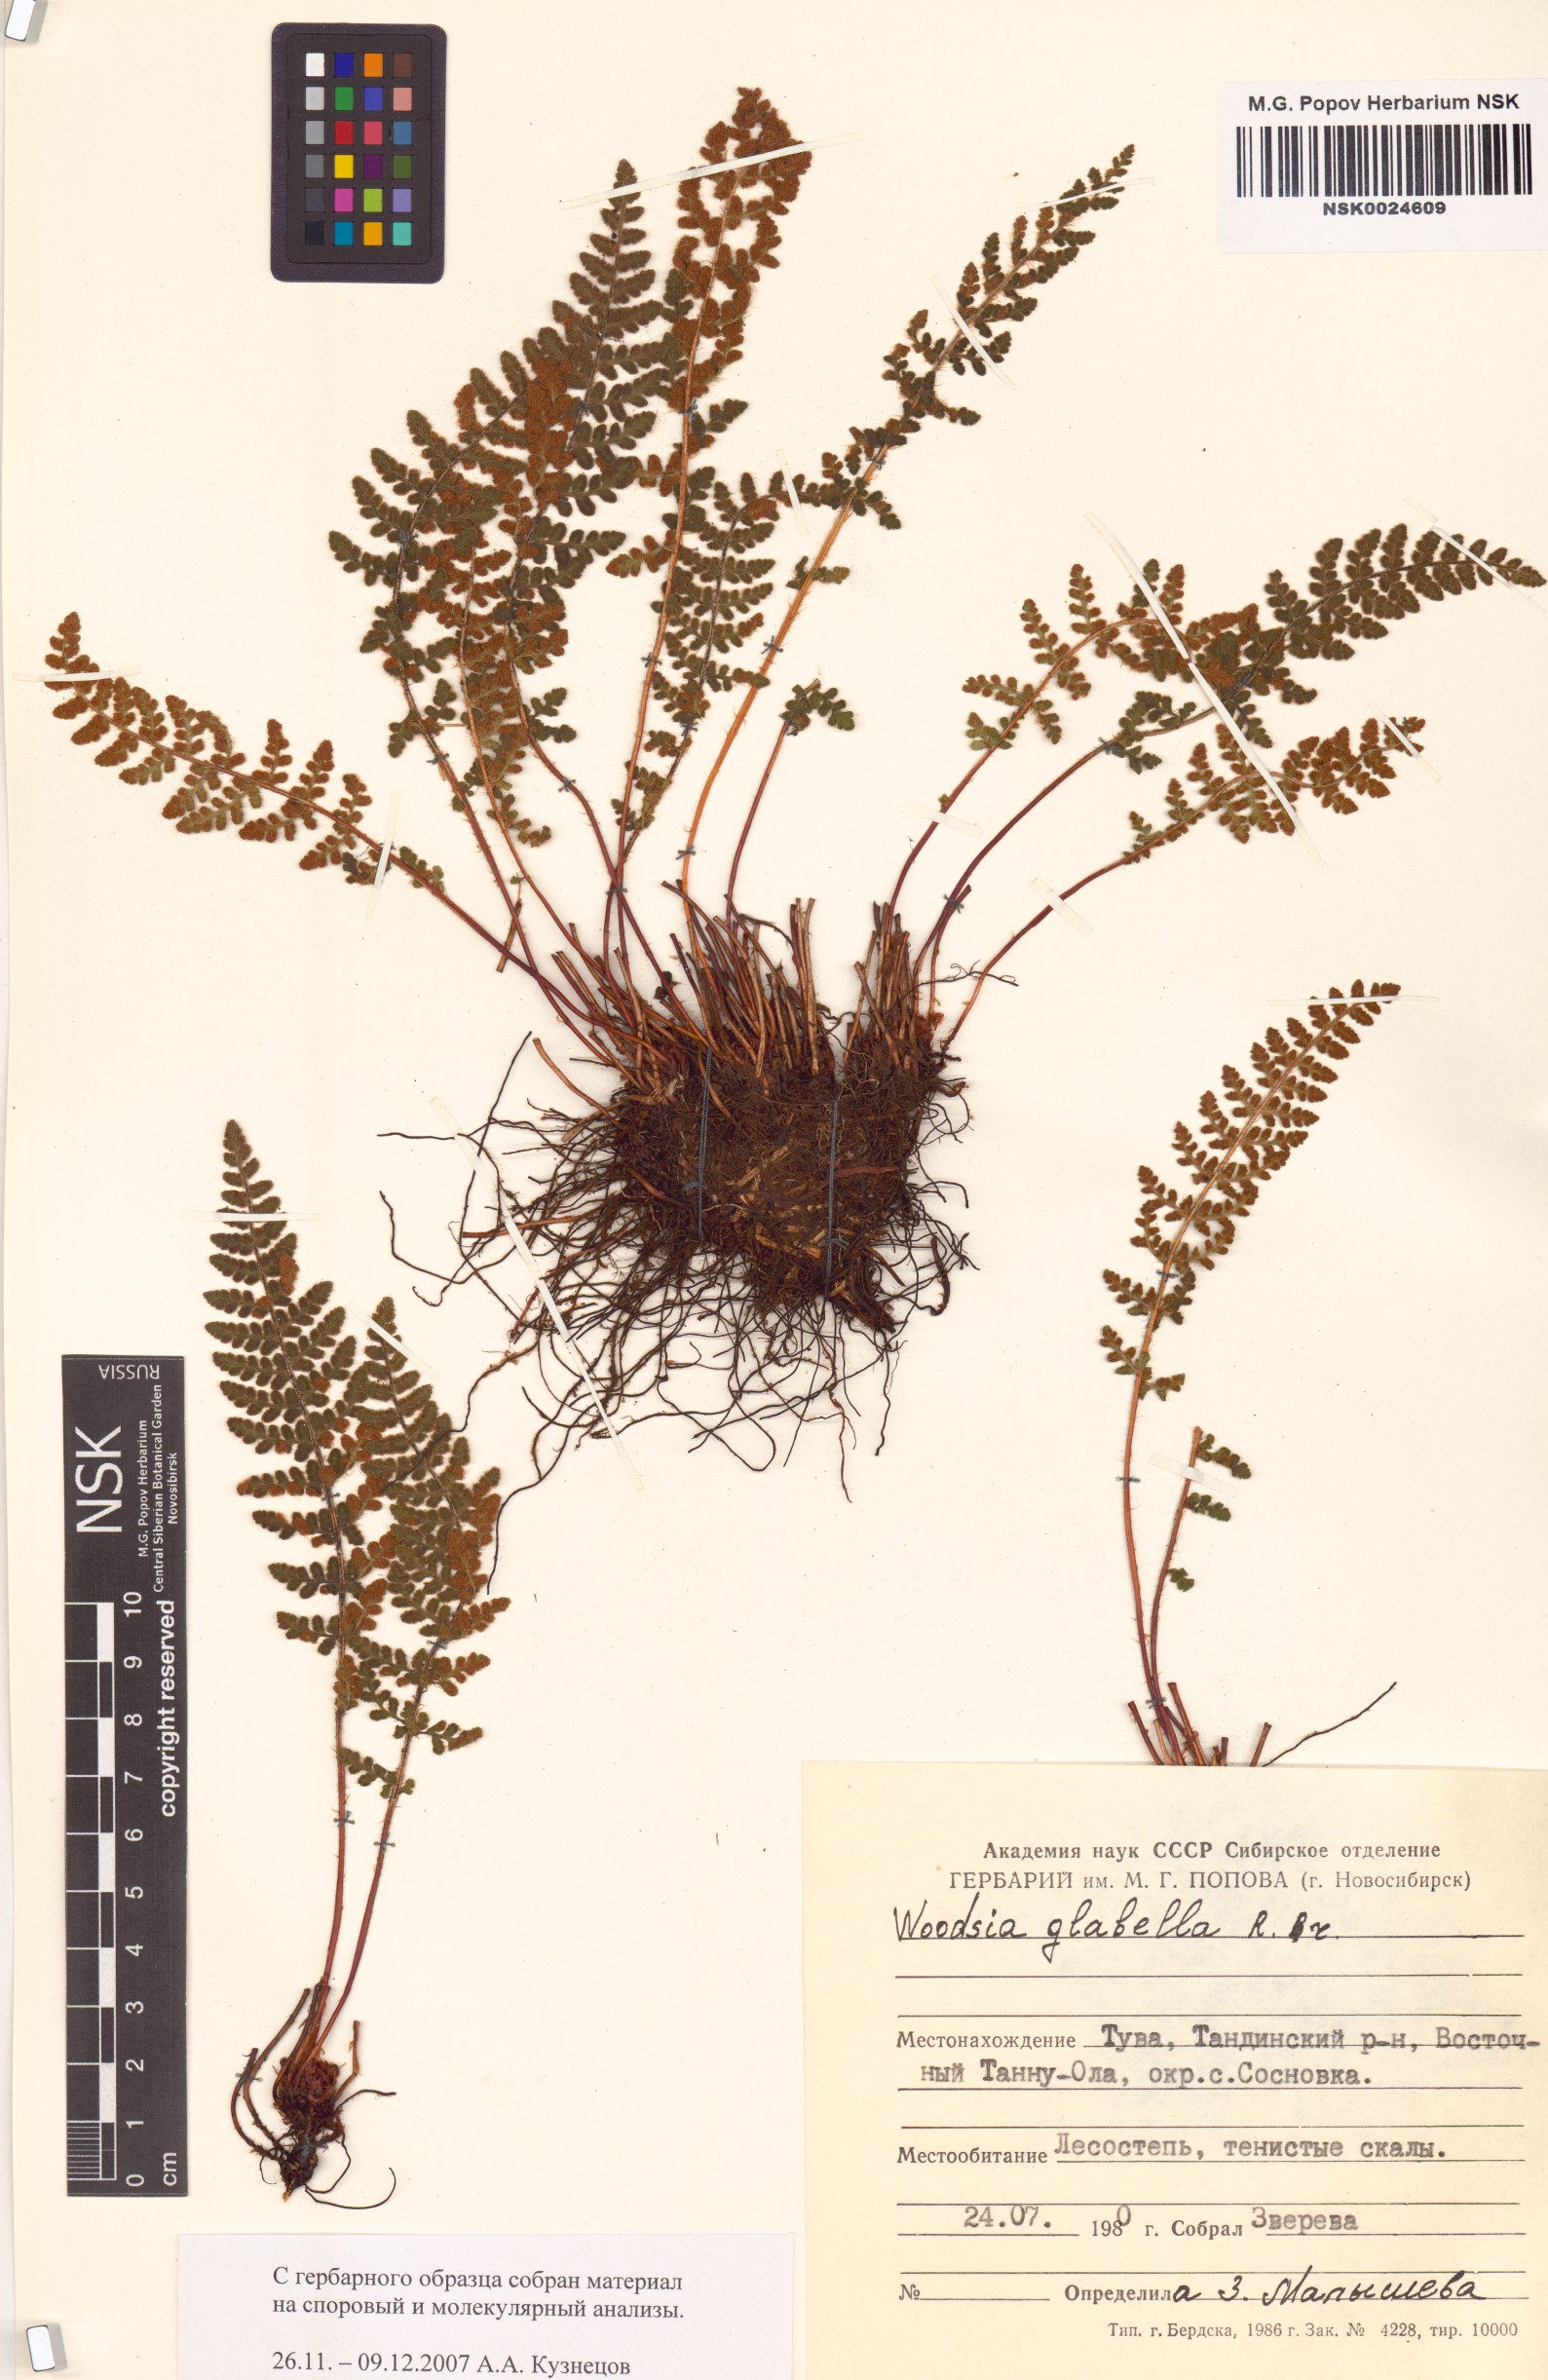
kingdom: Plantae
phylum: Tracheophyta
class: Polypodiopsida
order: Polypodiales
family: Woodsiaceae
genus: Woodsia
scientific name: Woodsia glabella
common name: Smooth woodsia
